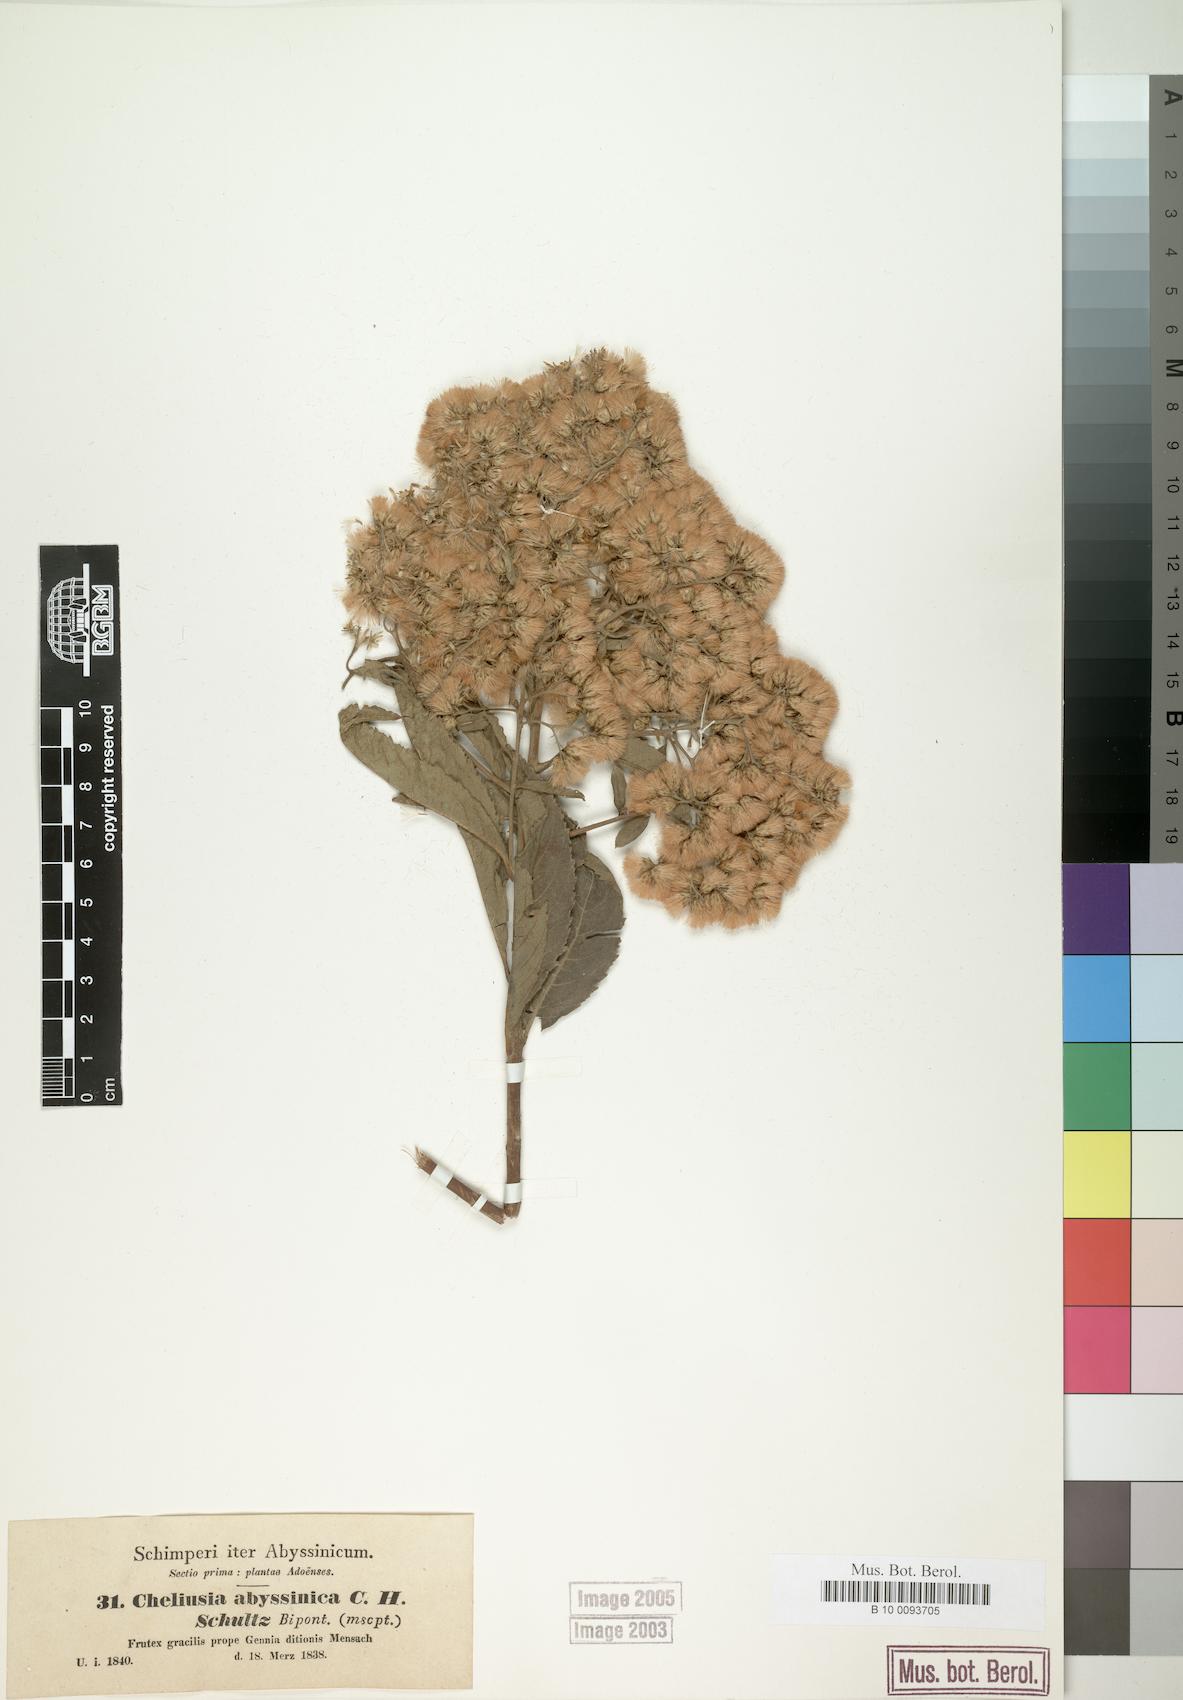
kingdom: Plantae
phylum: Tracheophyta
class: Magnoliopsida
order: Asterales
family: Asteraceae
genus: Baccharoides
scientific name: Baccharoides schimperi
